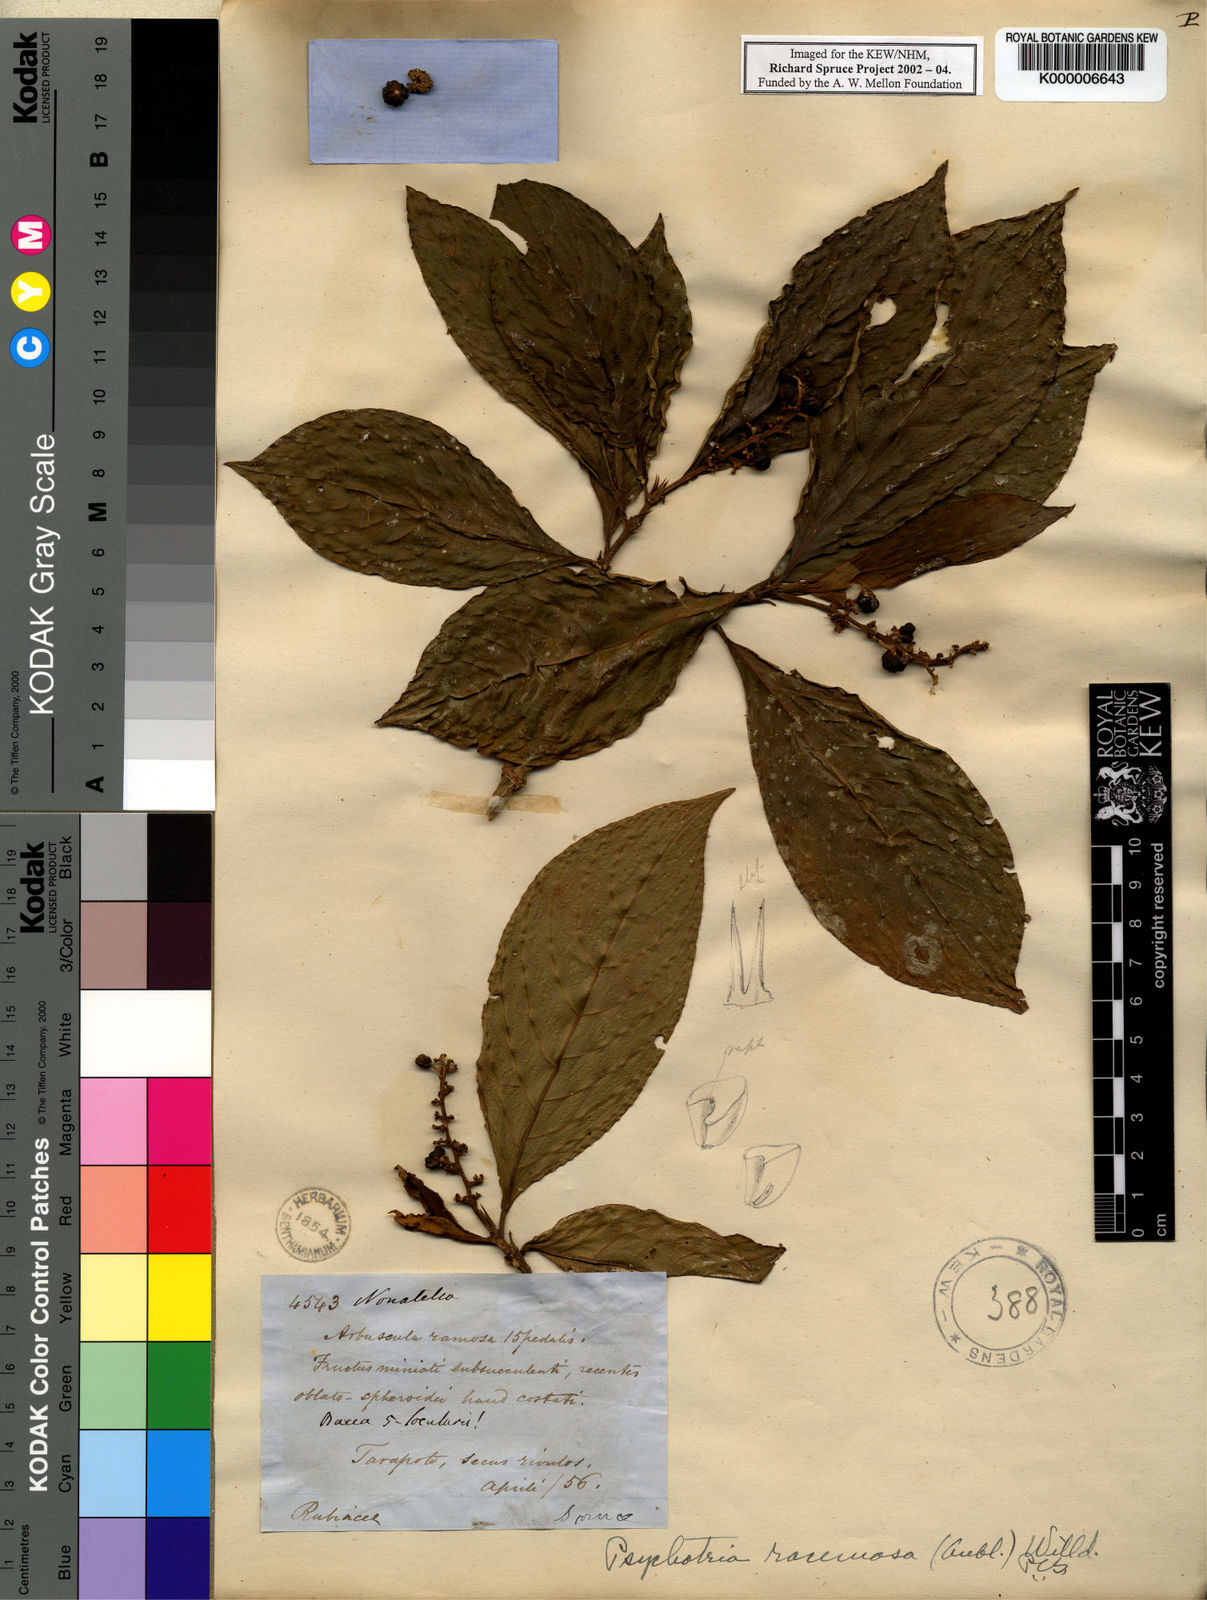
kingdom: Plantae
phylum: Tracheophyta
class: Magnoliopsida
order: Gentianales
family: Rubiaceae
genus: Psychotria
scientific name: Psychotria
